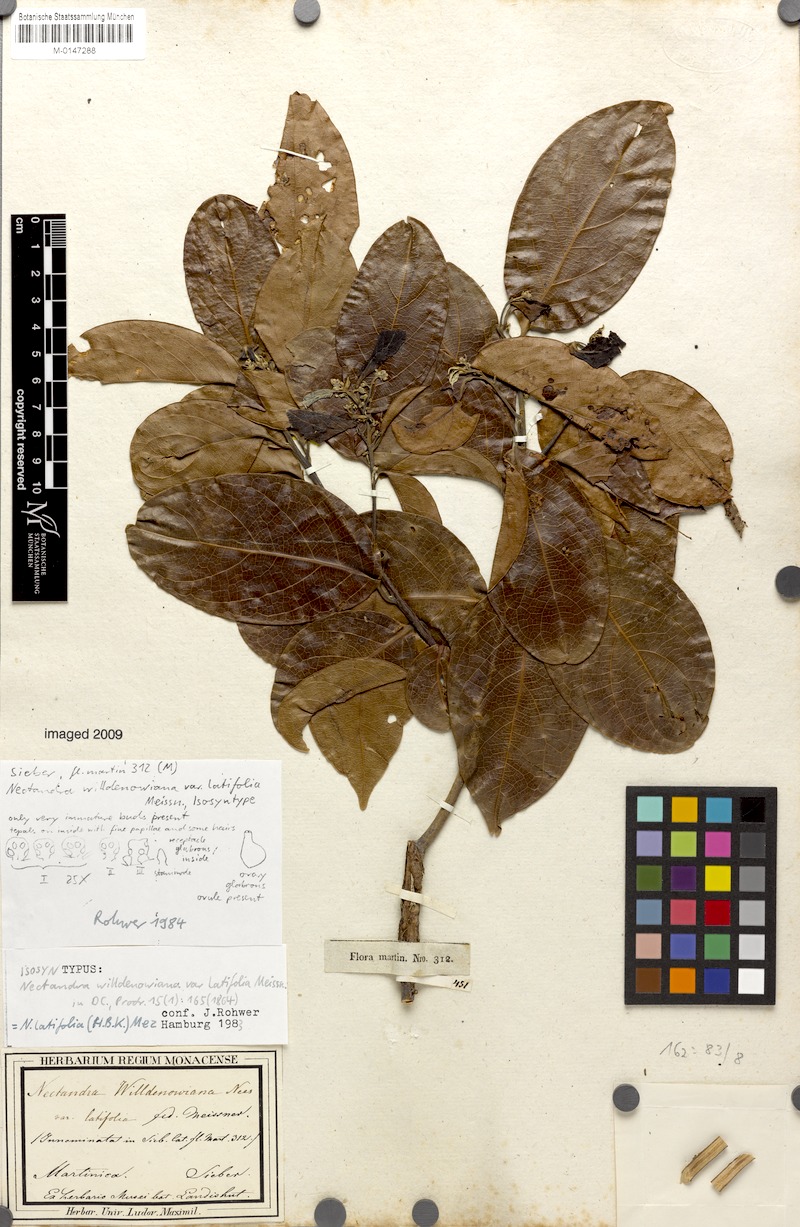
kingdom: Plantae
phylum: Tracheophyta
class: Magnoliopsida
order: Laurales
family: Lauraceae
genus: Damburneya
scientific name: Damburneya purpurea
